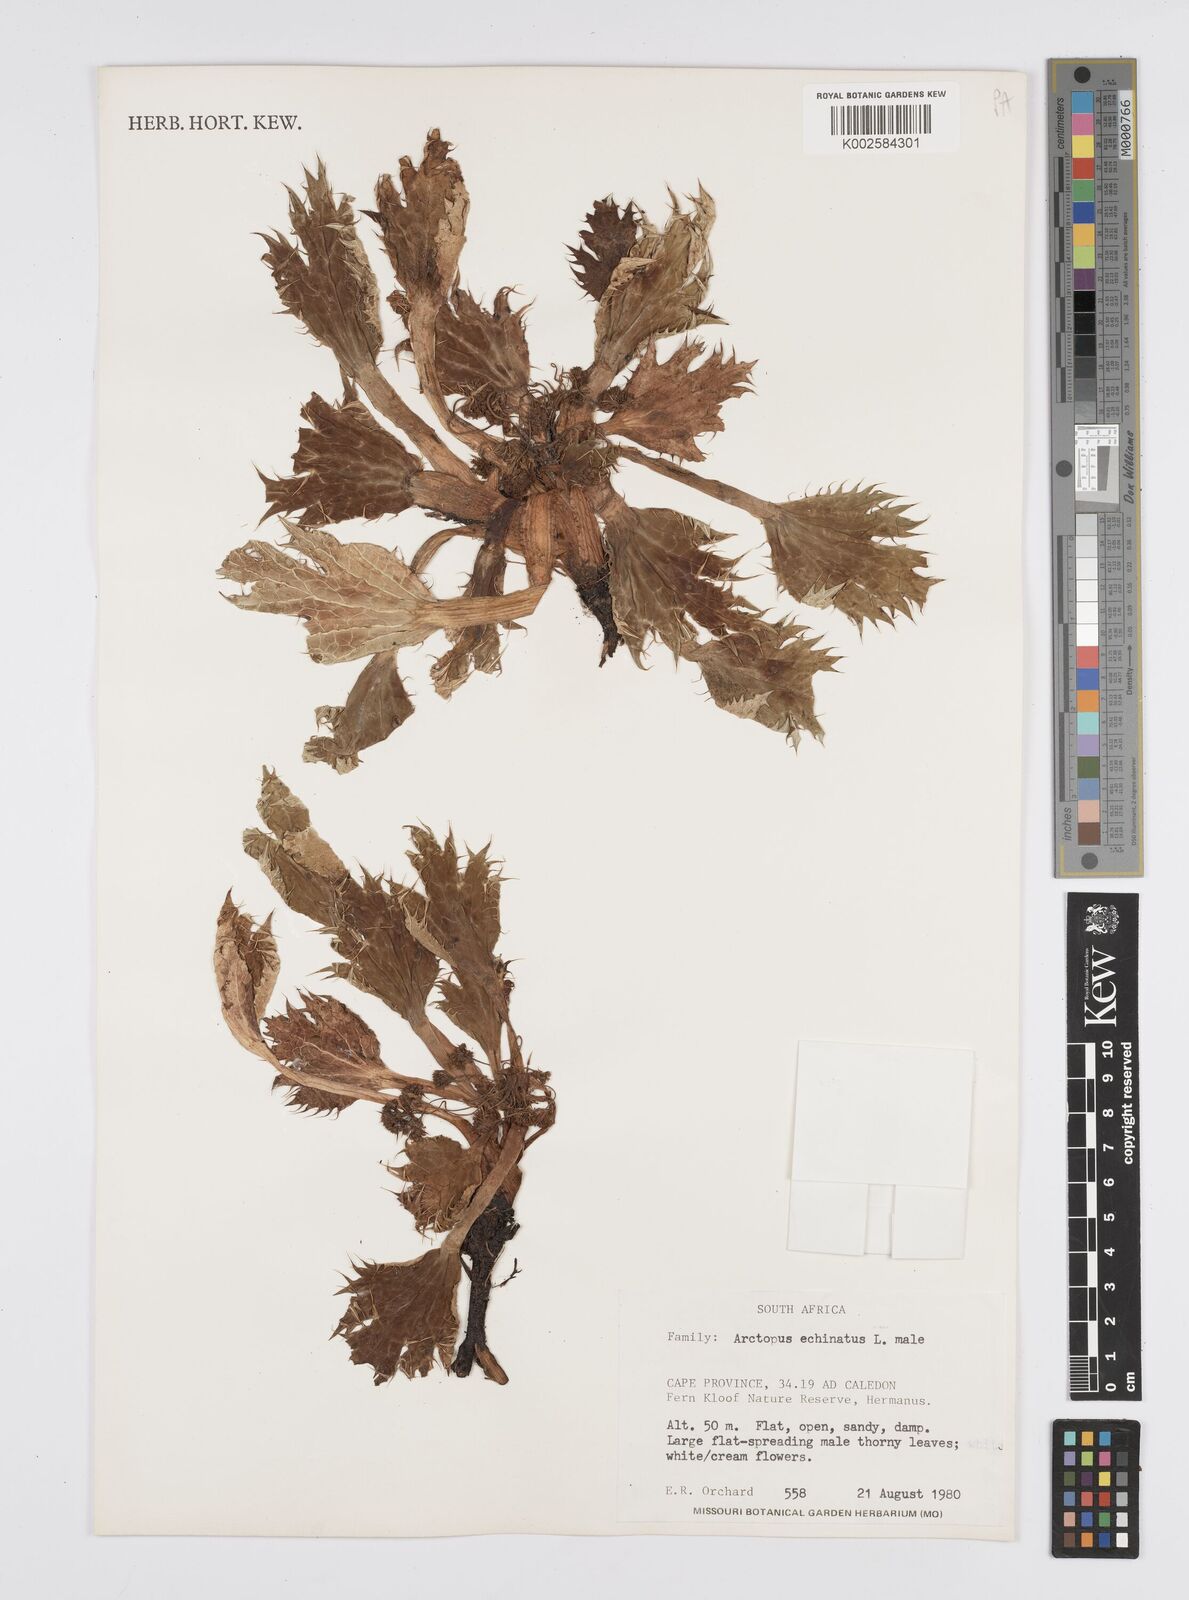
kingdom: Plantae
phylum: Tracheophyta
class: Magnoliopsida
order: Apiales
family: Apiaceae
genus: Arctopus
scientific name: Arctopus echinatus
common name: Platdoring
